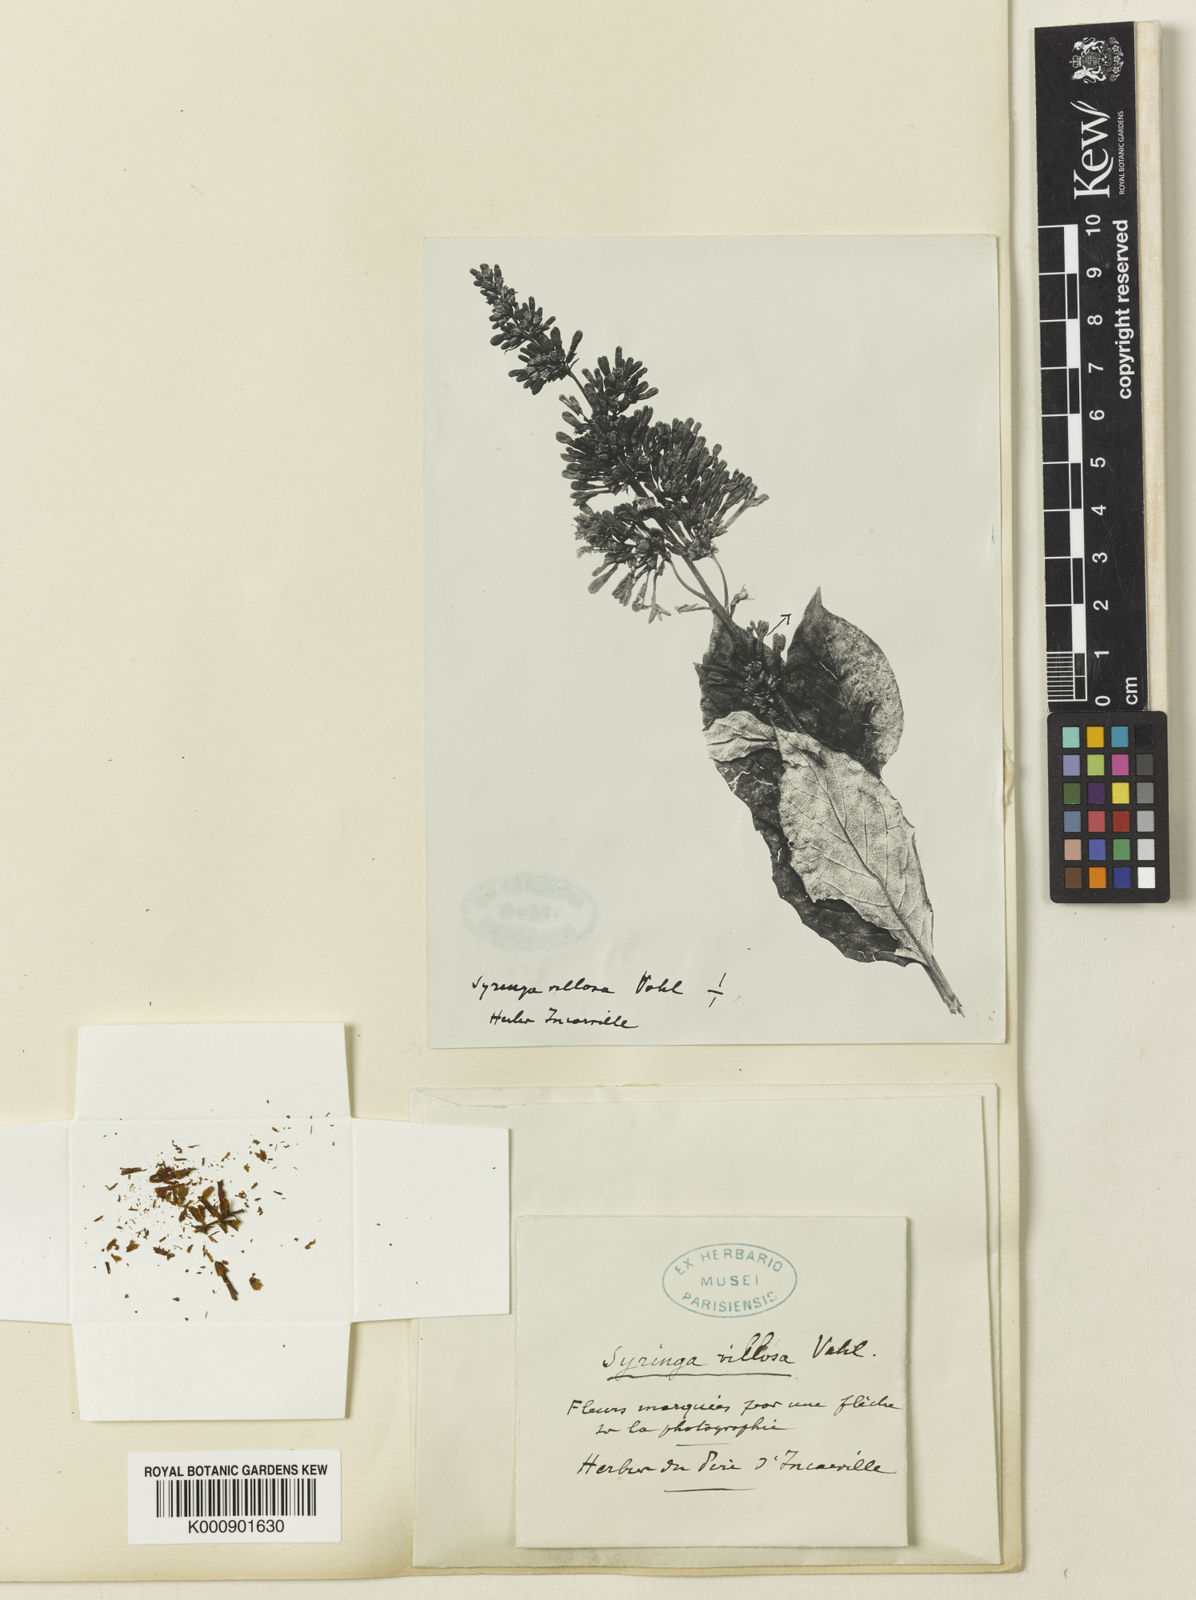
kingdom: Plantae
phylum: Tracheophyta
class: Magnoliopsida
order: Lamiales
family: Oleaceae
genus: Syringa
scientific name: Syringa villosa
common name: Villous lilac
